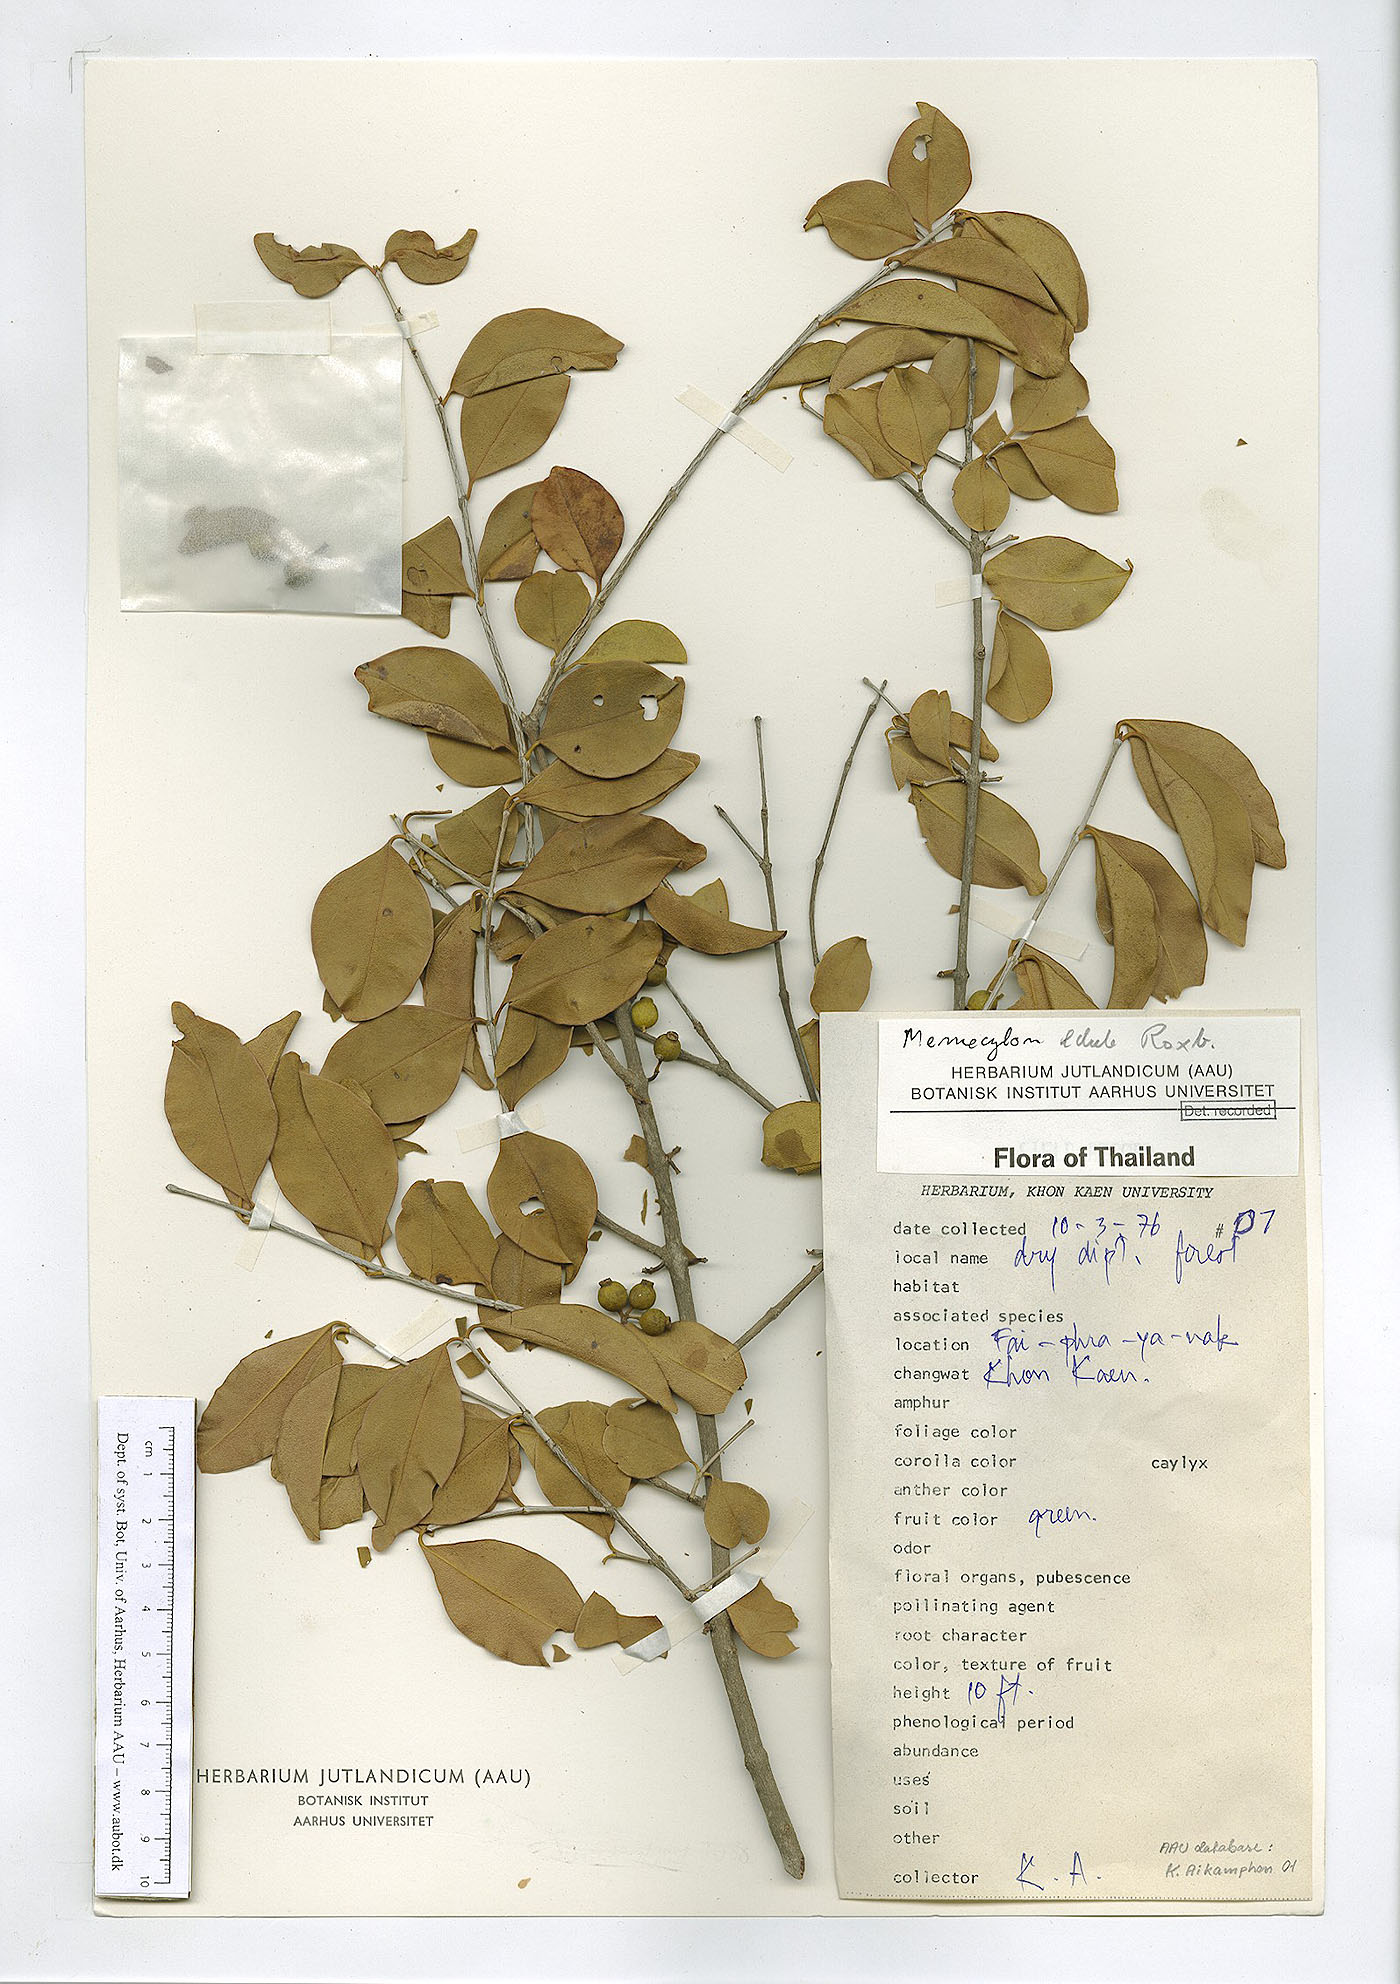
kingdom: Plantae
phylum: Tracheophyta
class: Magnoliopsida
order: Myrtales
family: Melastomataceae
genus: Memecylon
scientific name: Memecylon scutellatum
